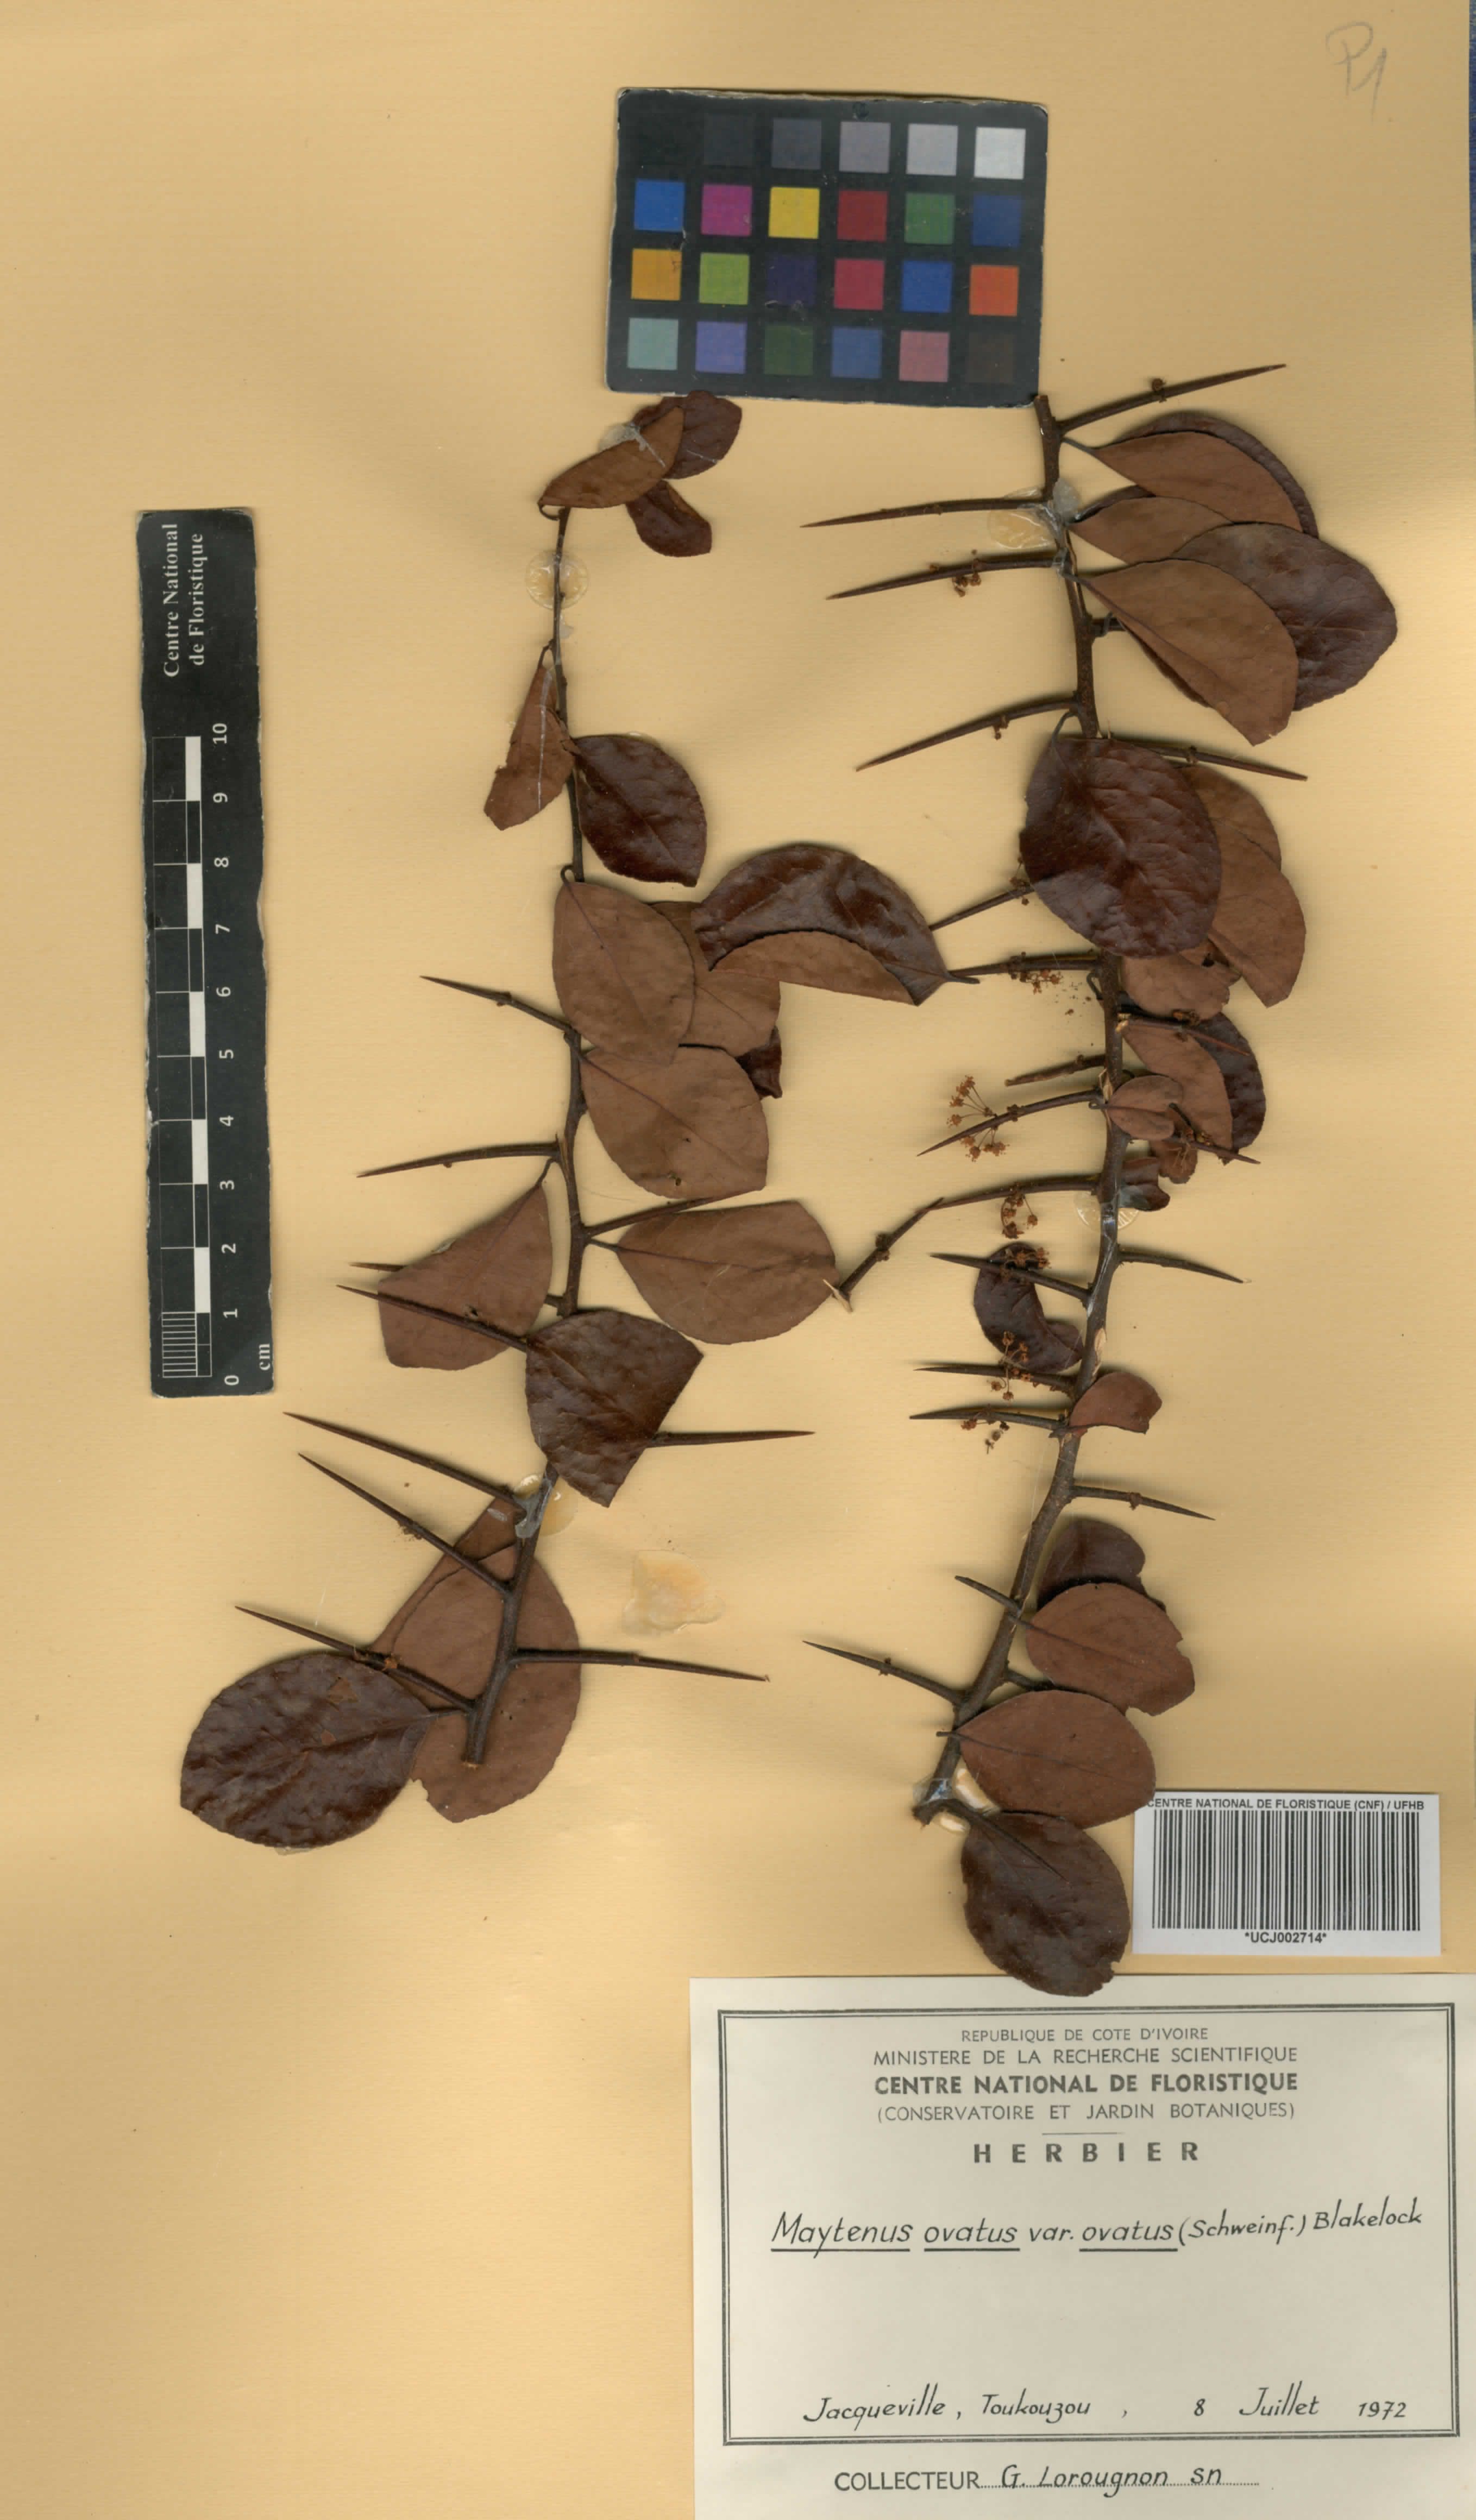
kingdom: Plantae
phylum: Tracheophyta
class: Magnoliopsida
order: Celastrales
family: Celastraceae
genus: Gymnosporia
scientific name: Gymnosporia buchananii
